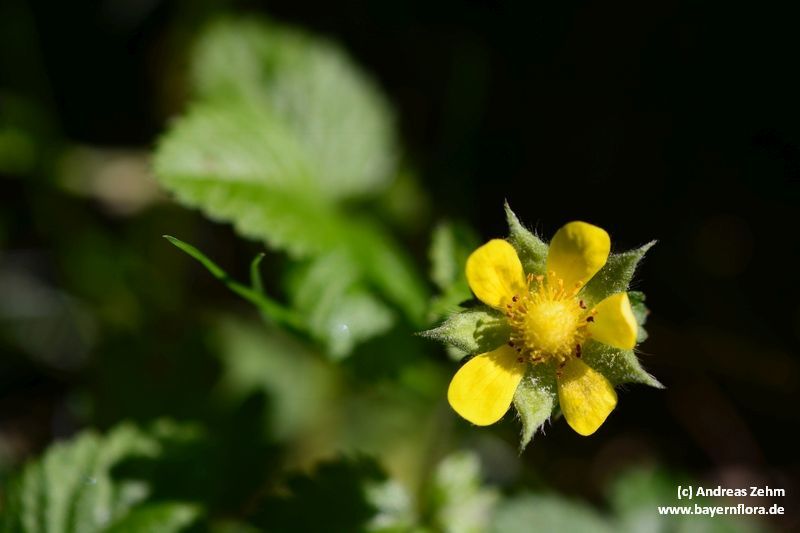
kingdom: Plantae
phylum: Tracheophyta
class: Magnoliopsida
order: Rosales
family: Rosaceae
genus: Potentilla
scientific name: Potentilla indica
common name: Yellow-flowered strawberry
